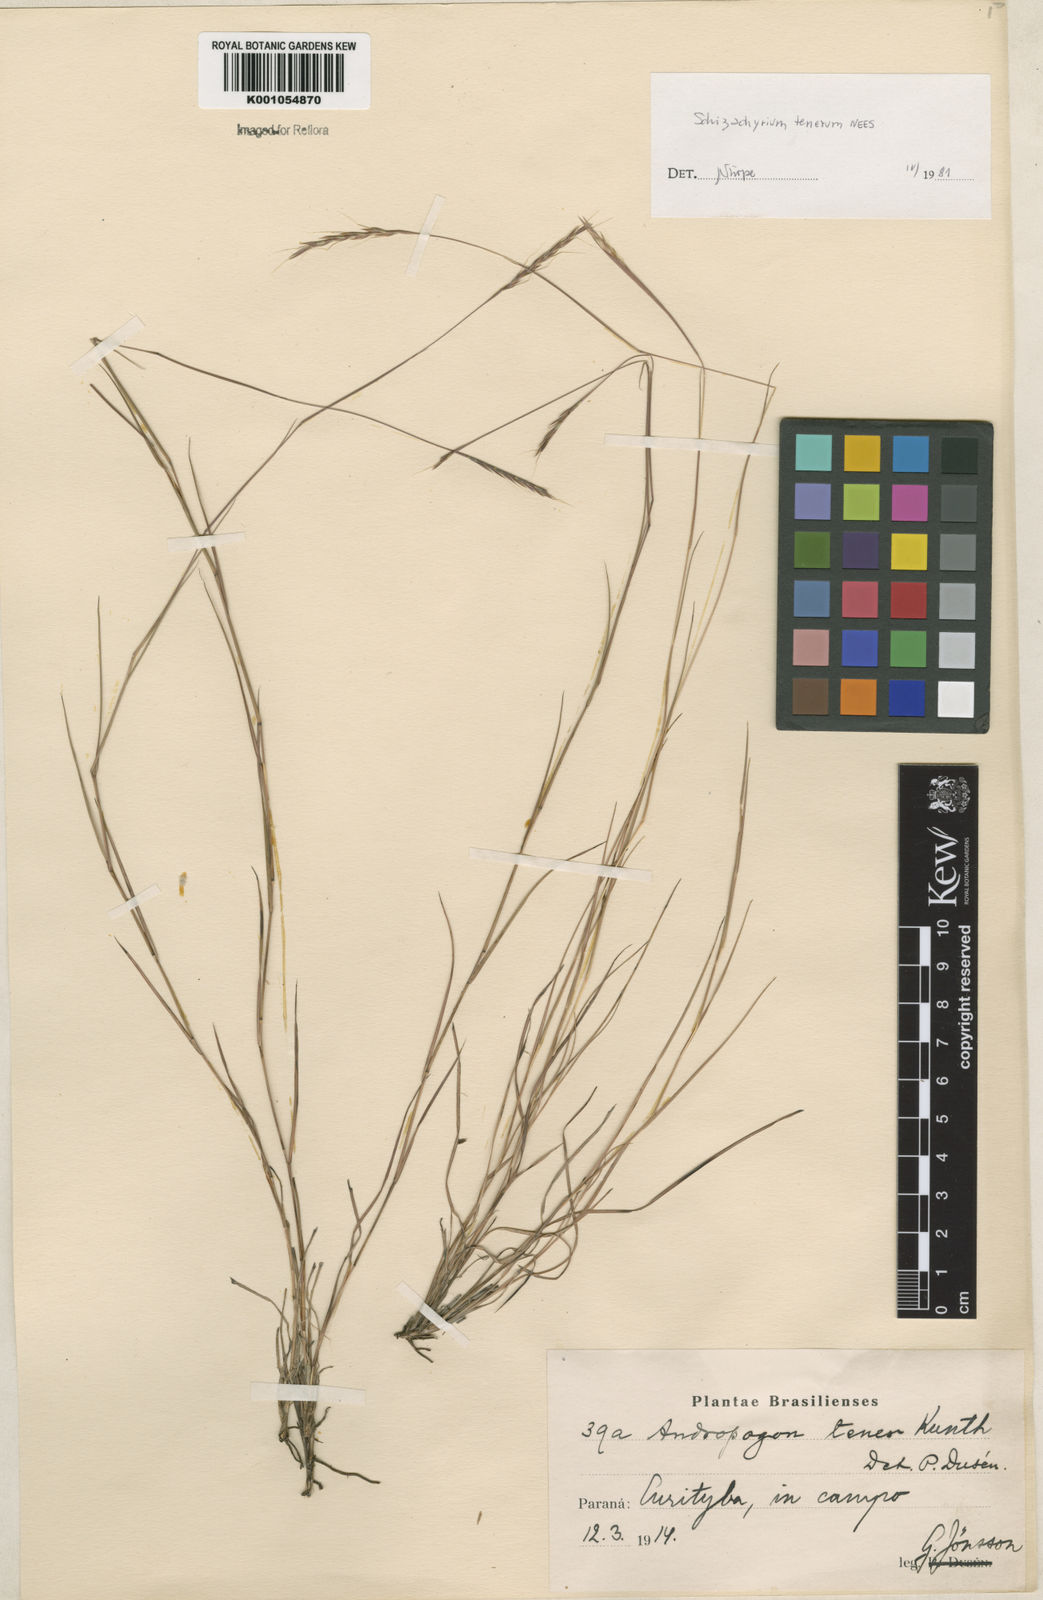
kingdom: Plantae
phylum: Tracheophyta
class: Liliopsida
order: Poales
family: Poaceae
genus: Andropogon
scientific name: Andropogon tener
